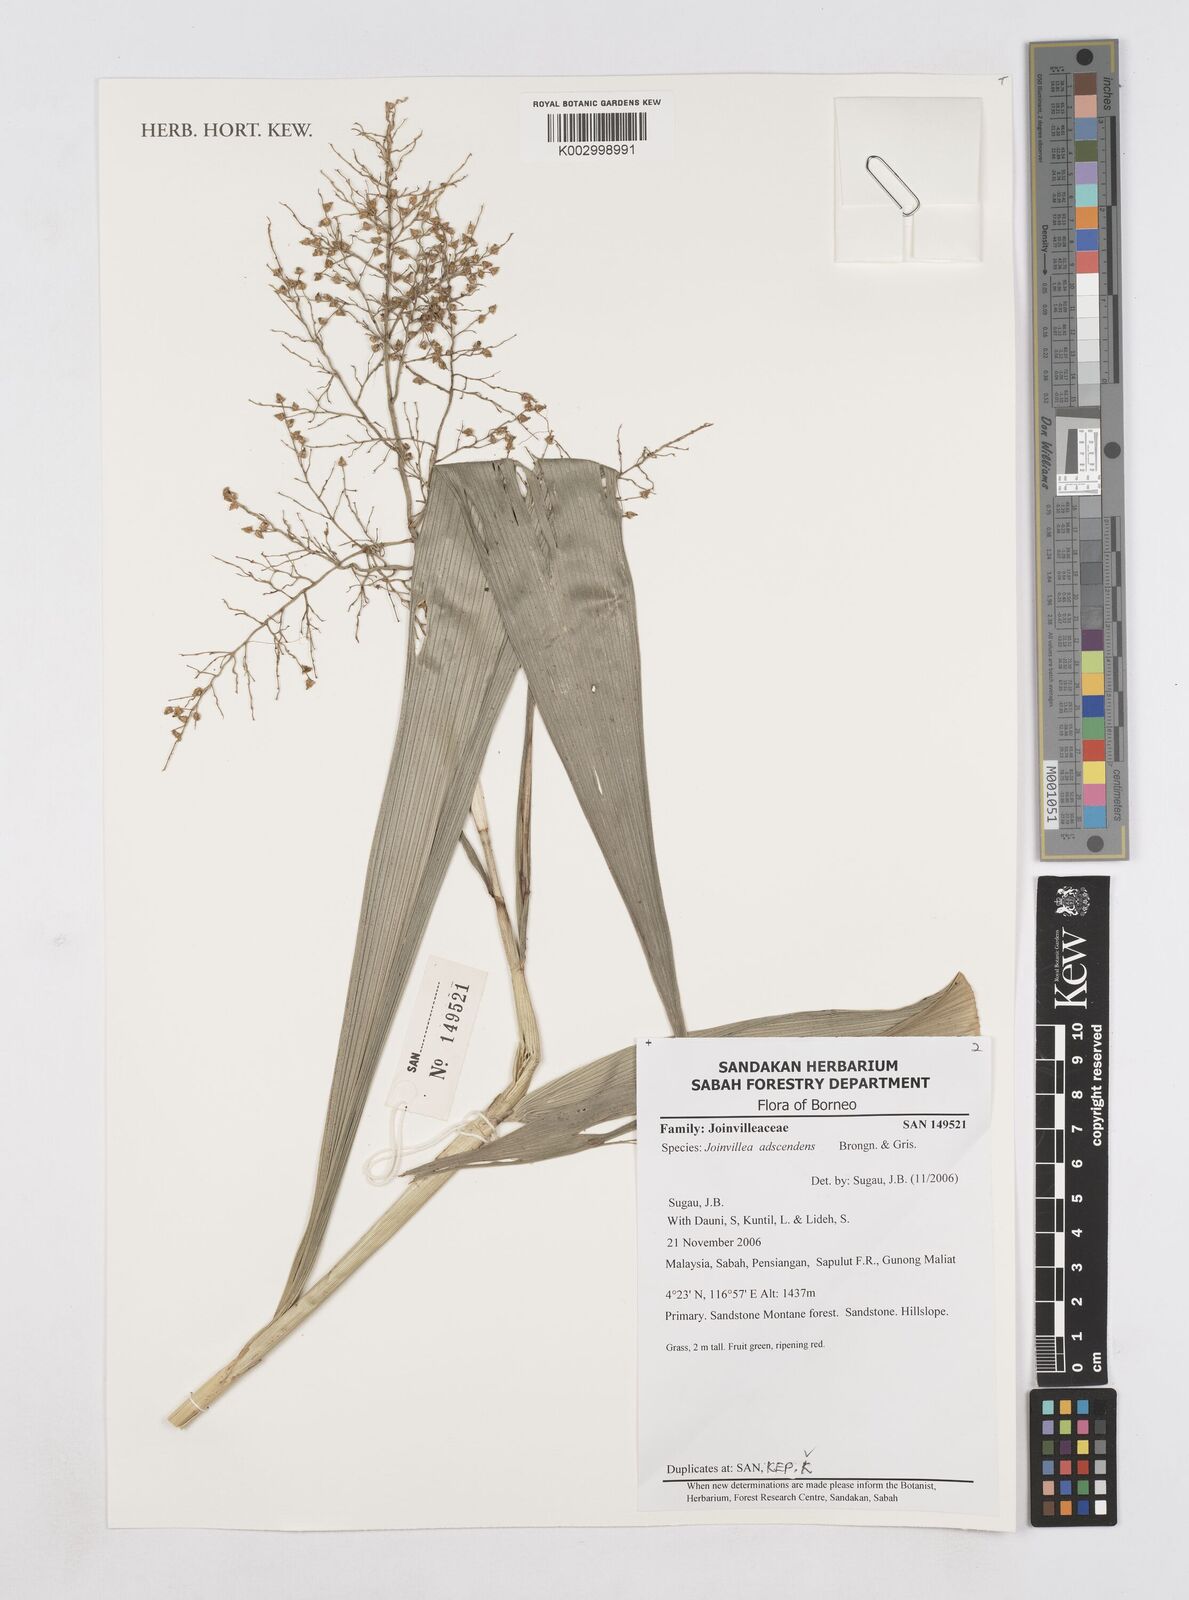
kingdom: Plantae
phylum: Tracheophyta
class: Liliopsida
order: Poales
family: Joinvilleaceae
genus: Joinvillea
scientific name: Joinvillea borneensis
